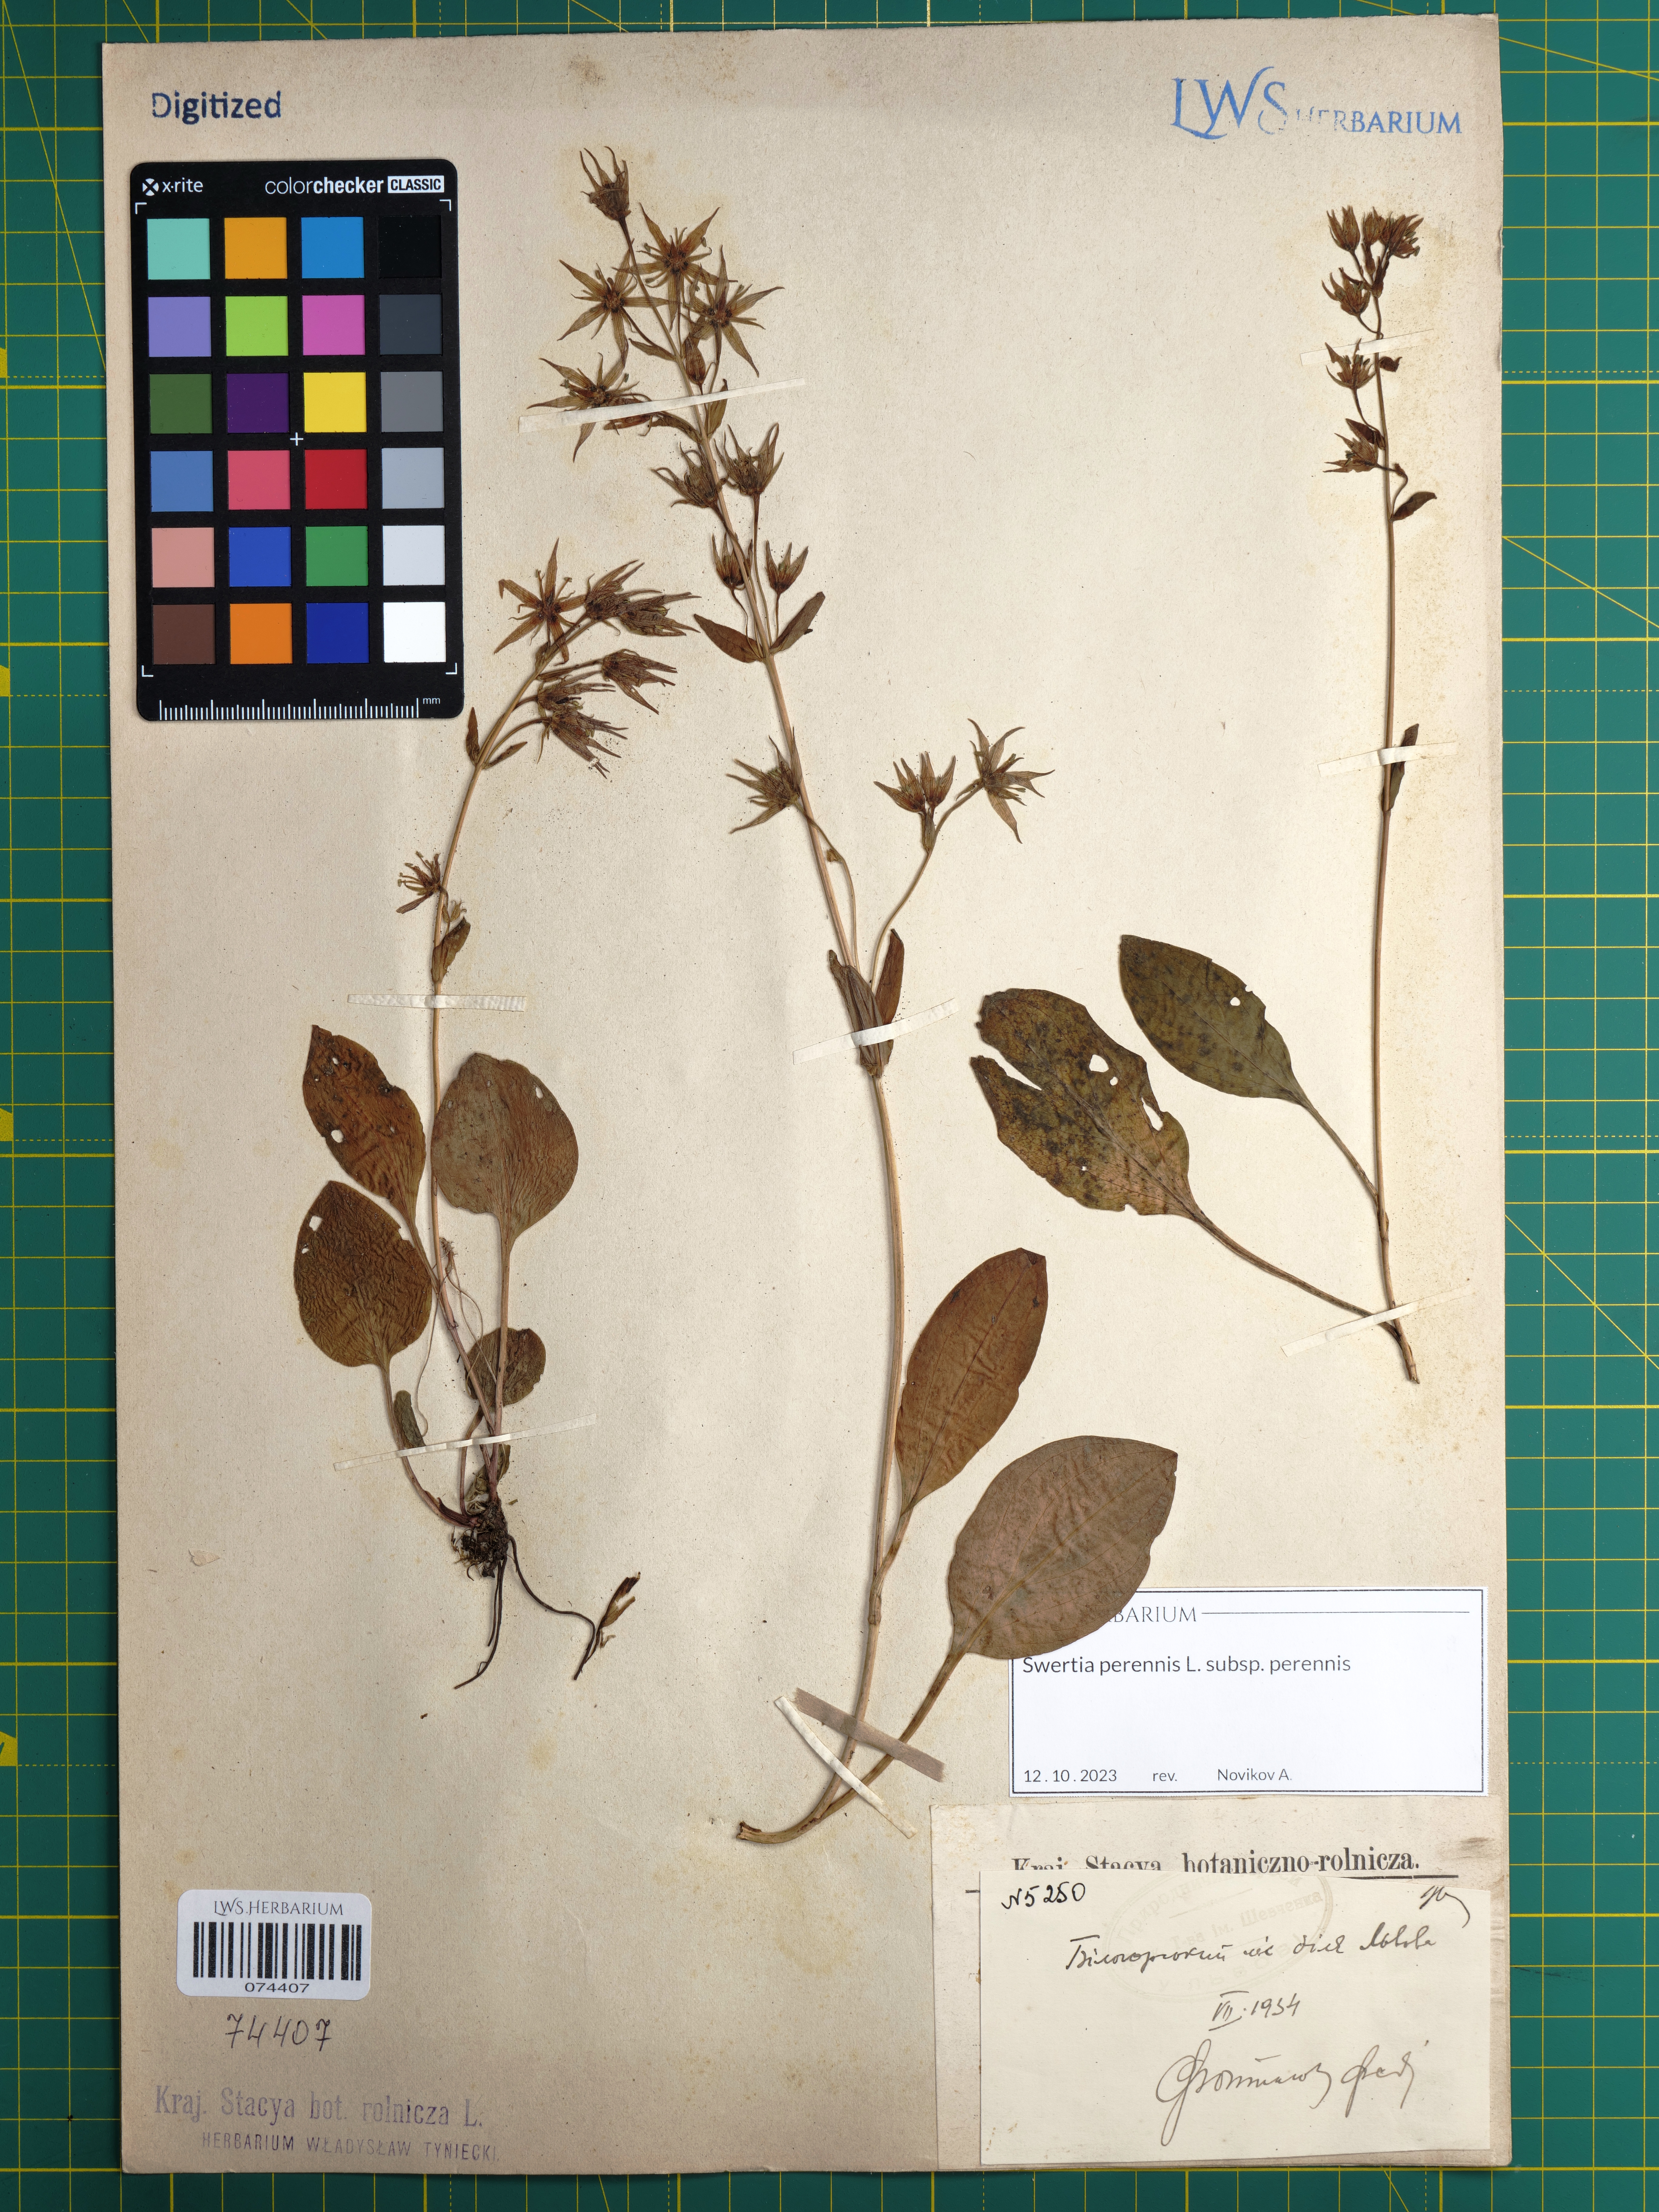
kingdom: Plantae
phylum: Tracheophyta
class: Magnoliopsida
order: Gentianales
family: Gentianaceae
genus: Swertia
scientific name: Swertia perennis
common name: Alpine bog swertia
